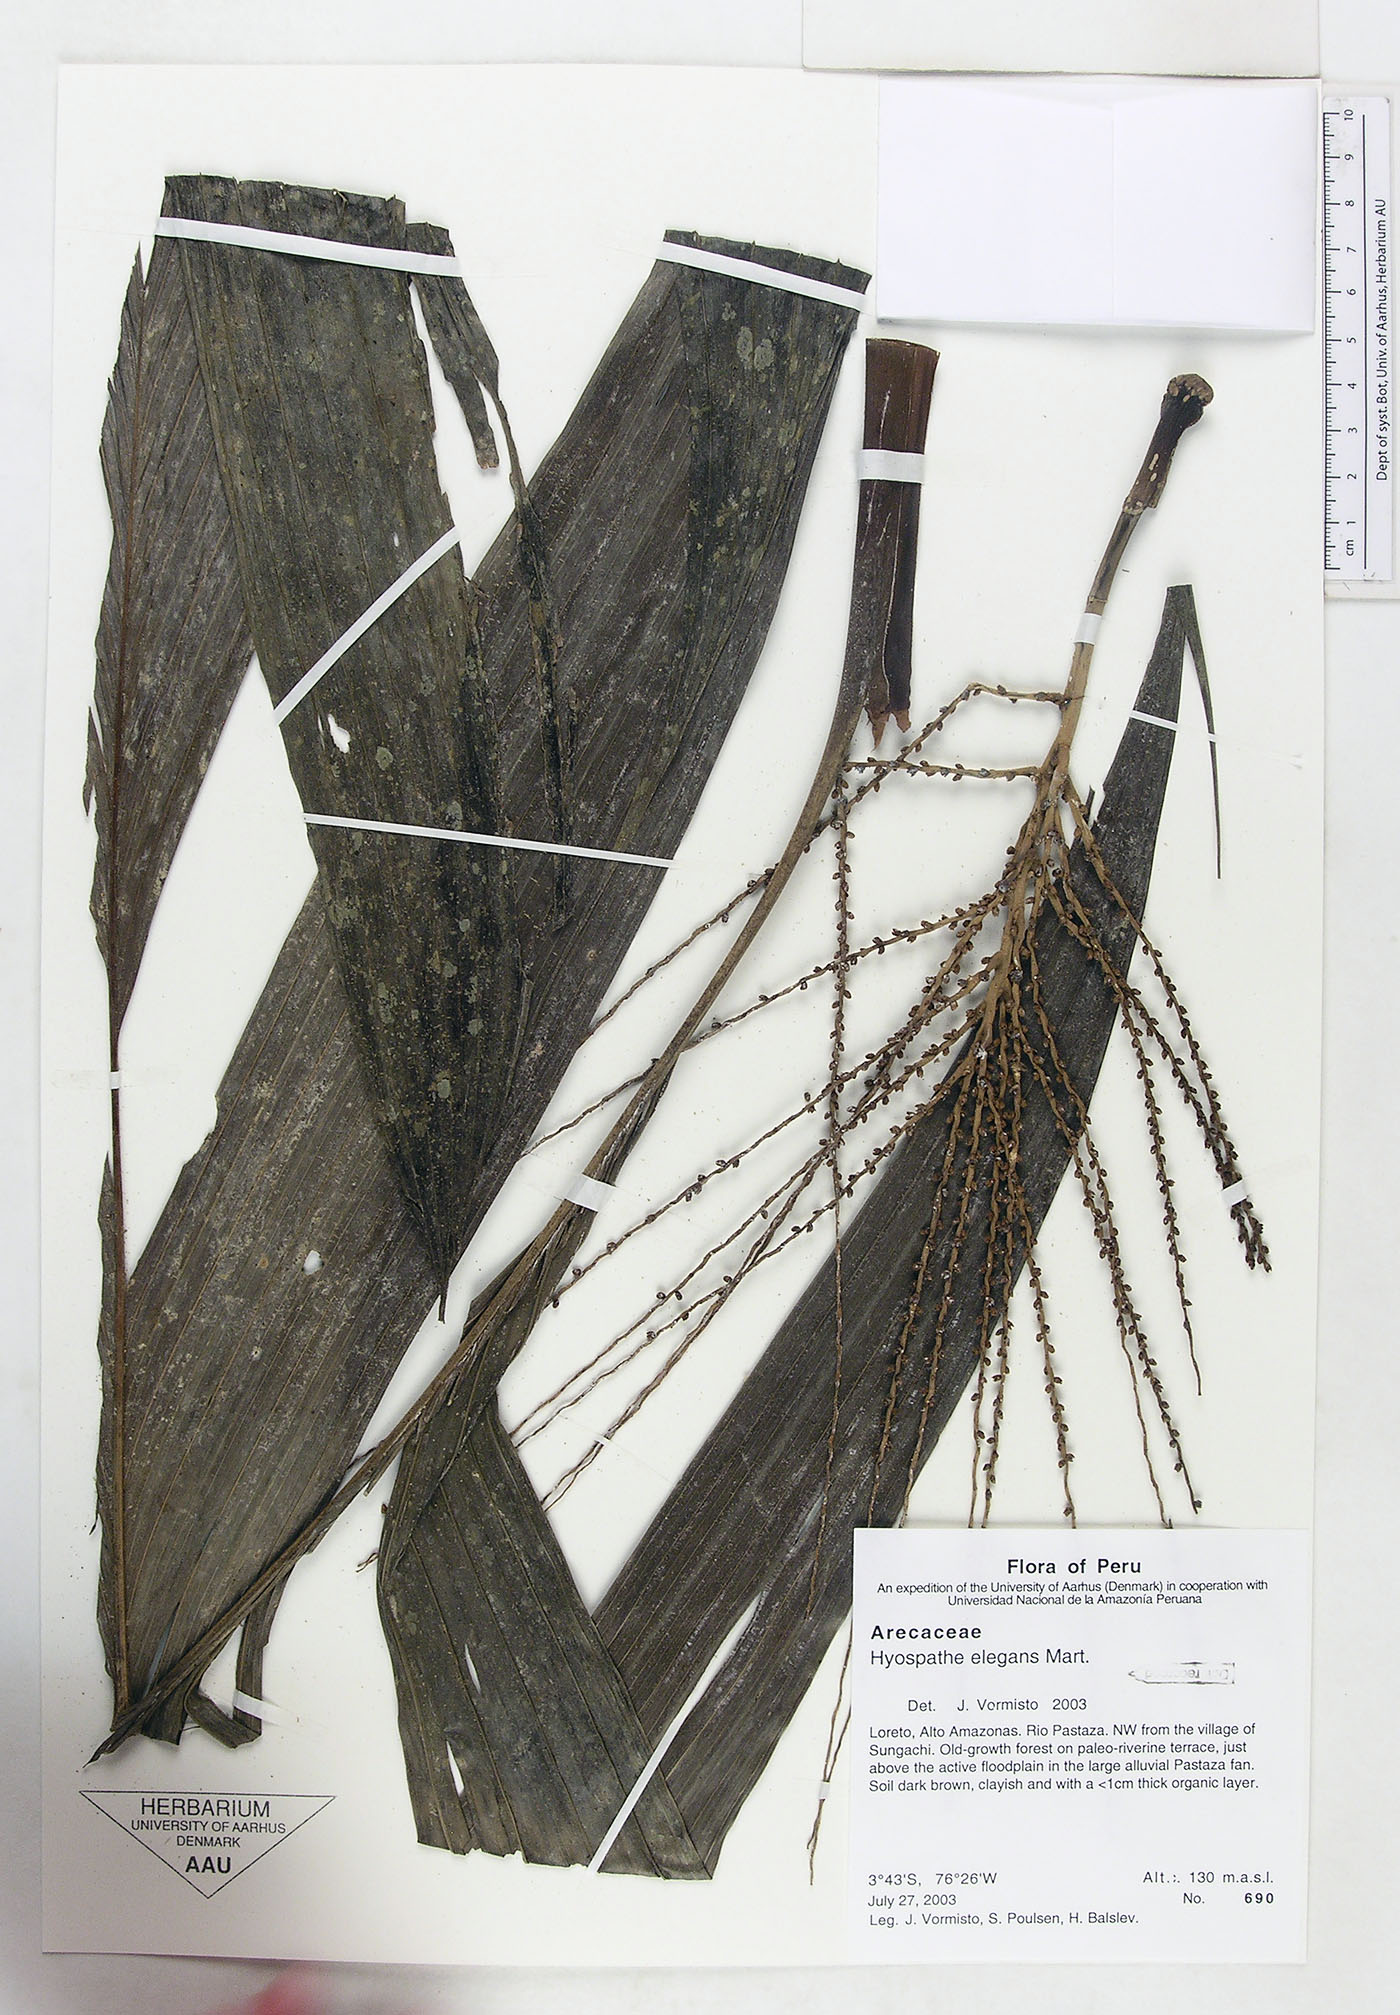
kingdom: Plantae
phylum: Tracheophyta
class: Liliopsida
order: Arecales
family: Arecaceae
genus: Hyospathe
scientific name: Hyospathe elegans
